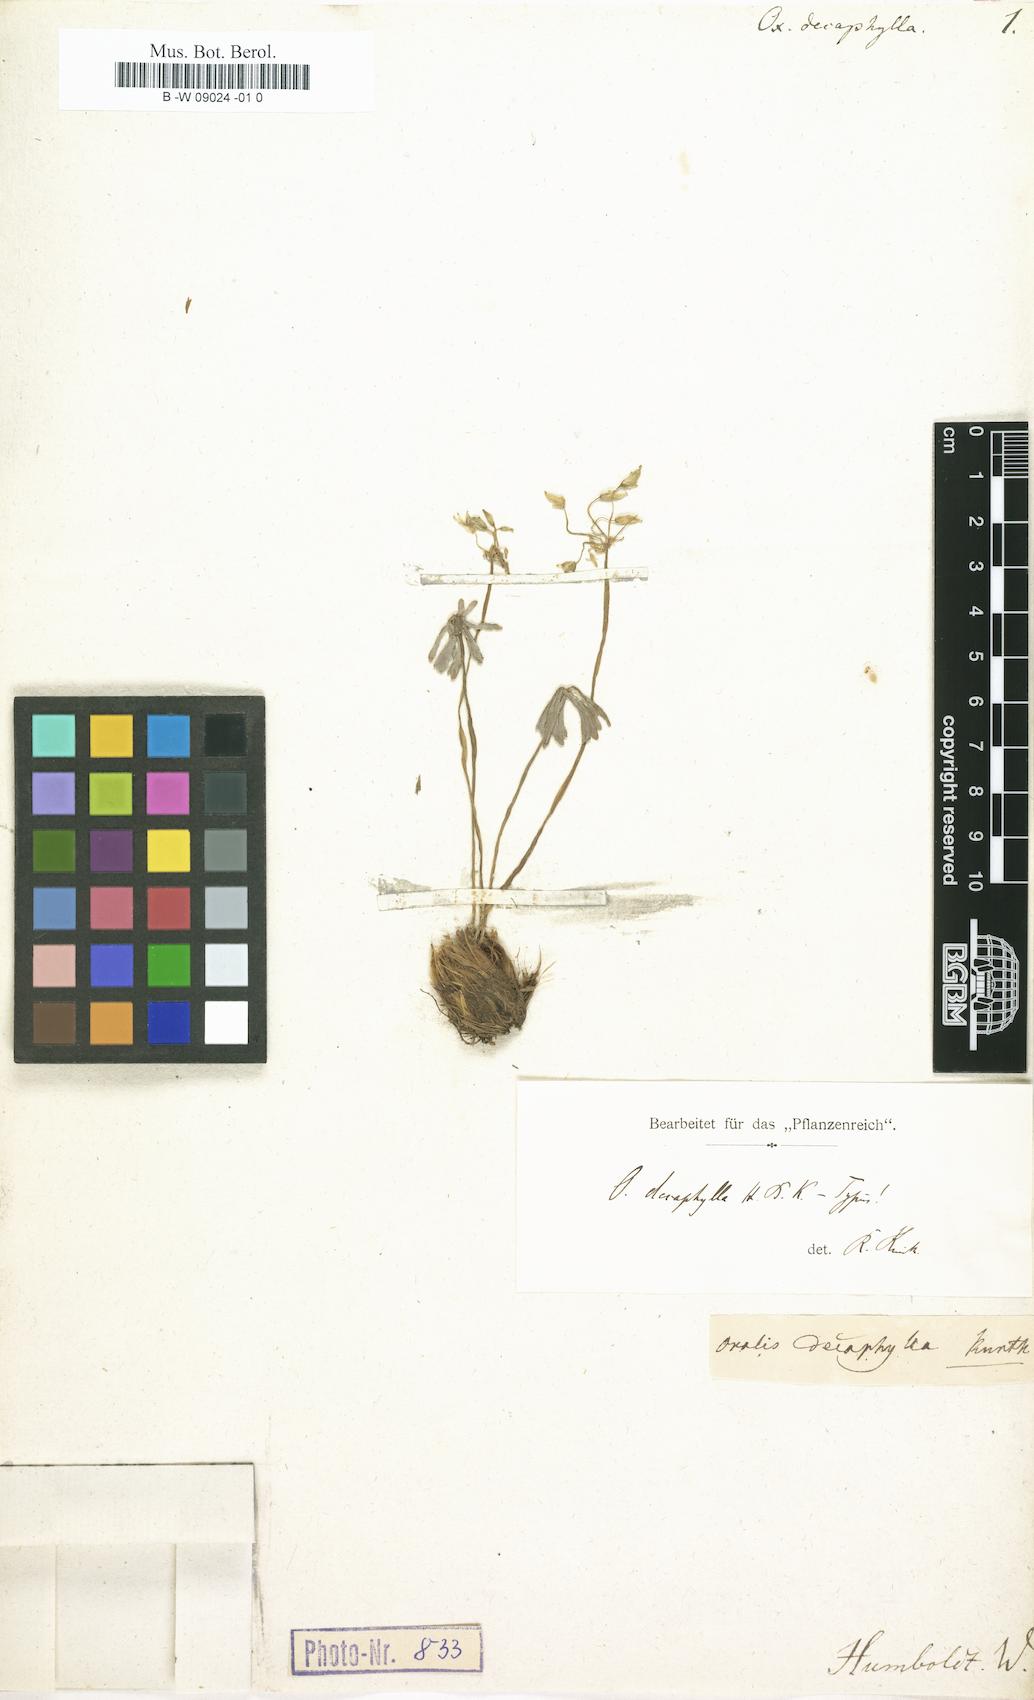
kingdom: Plantae
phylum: Tracheophyta
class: Magnoliopsida
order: Oxalidales
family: Oxalidaceae
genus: Oxalis
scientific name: Oxalis decaphylla
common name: Ten-leaved pink-sorrel
